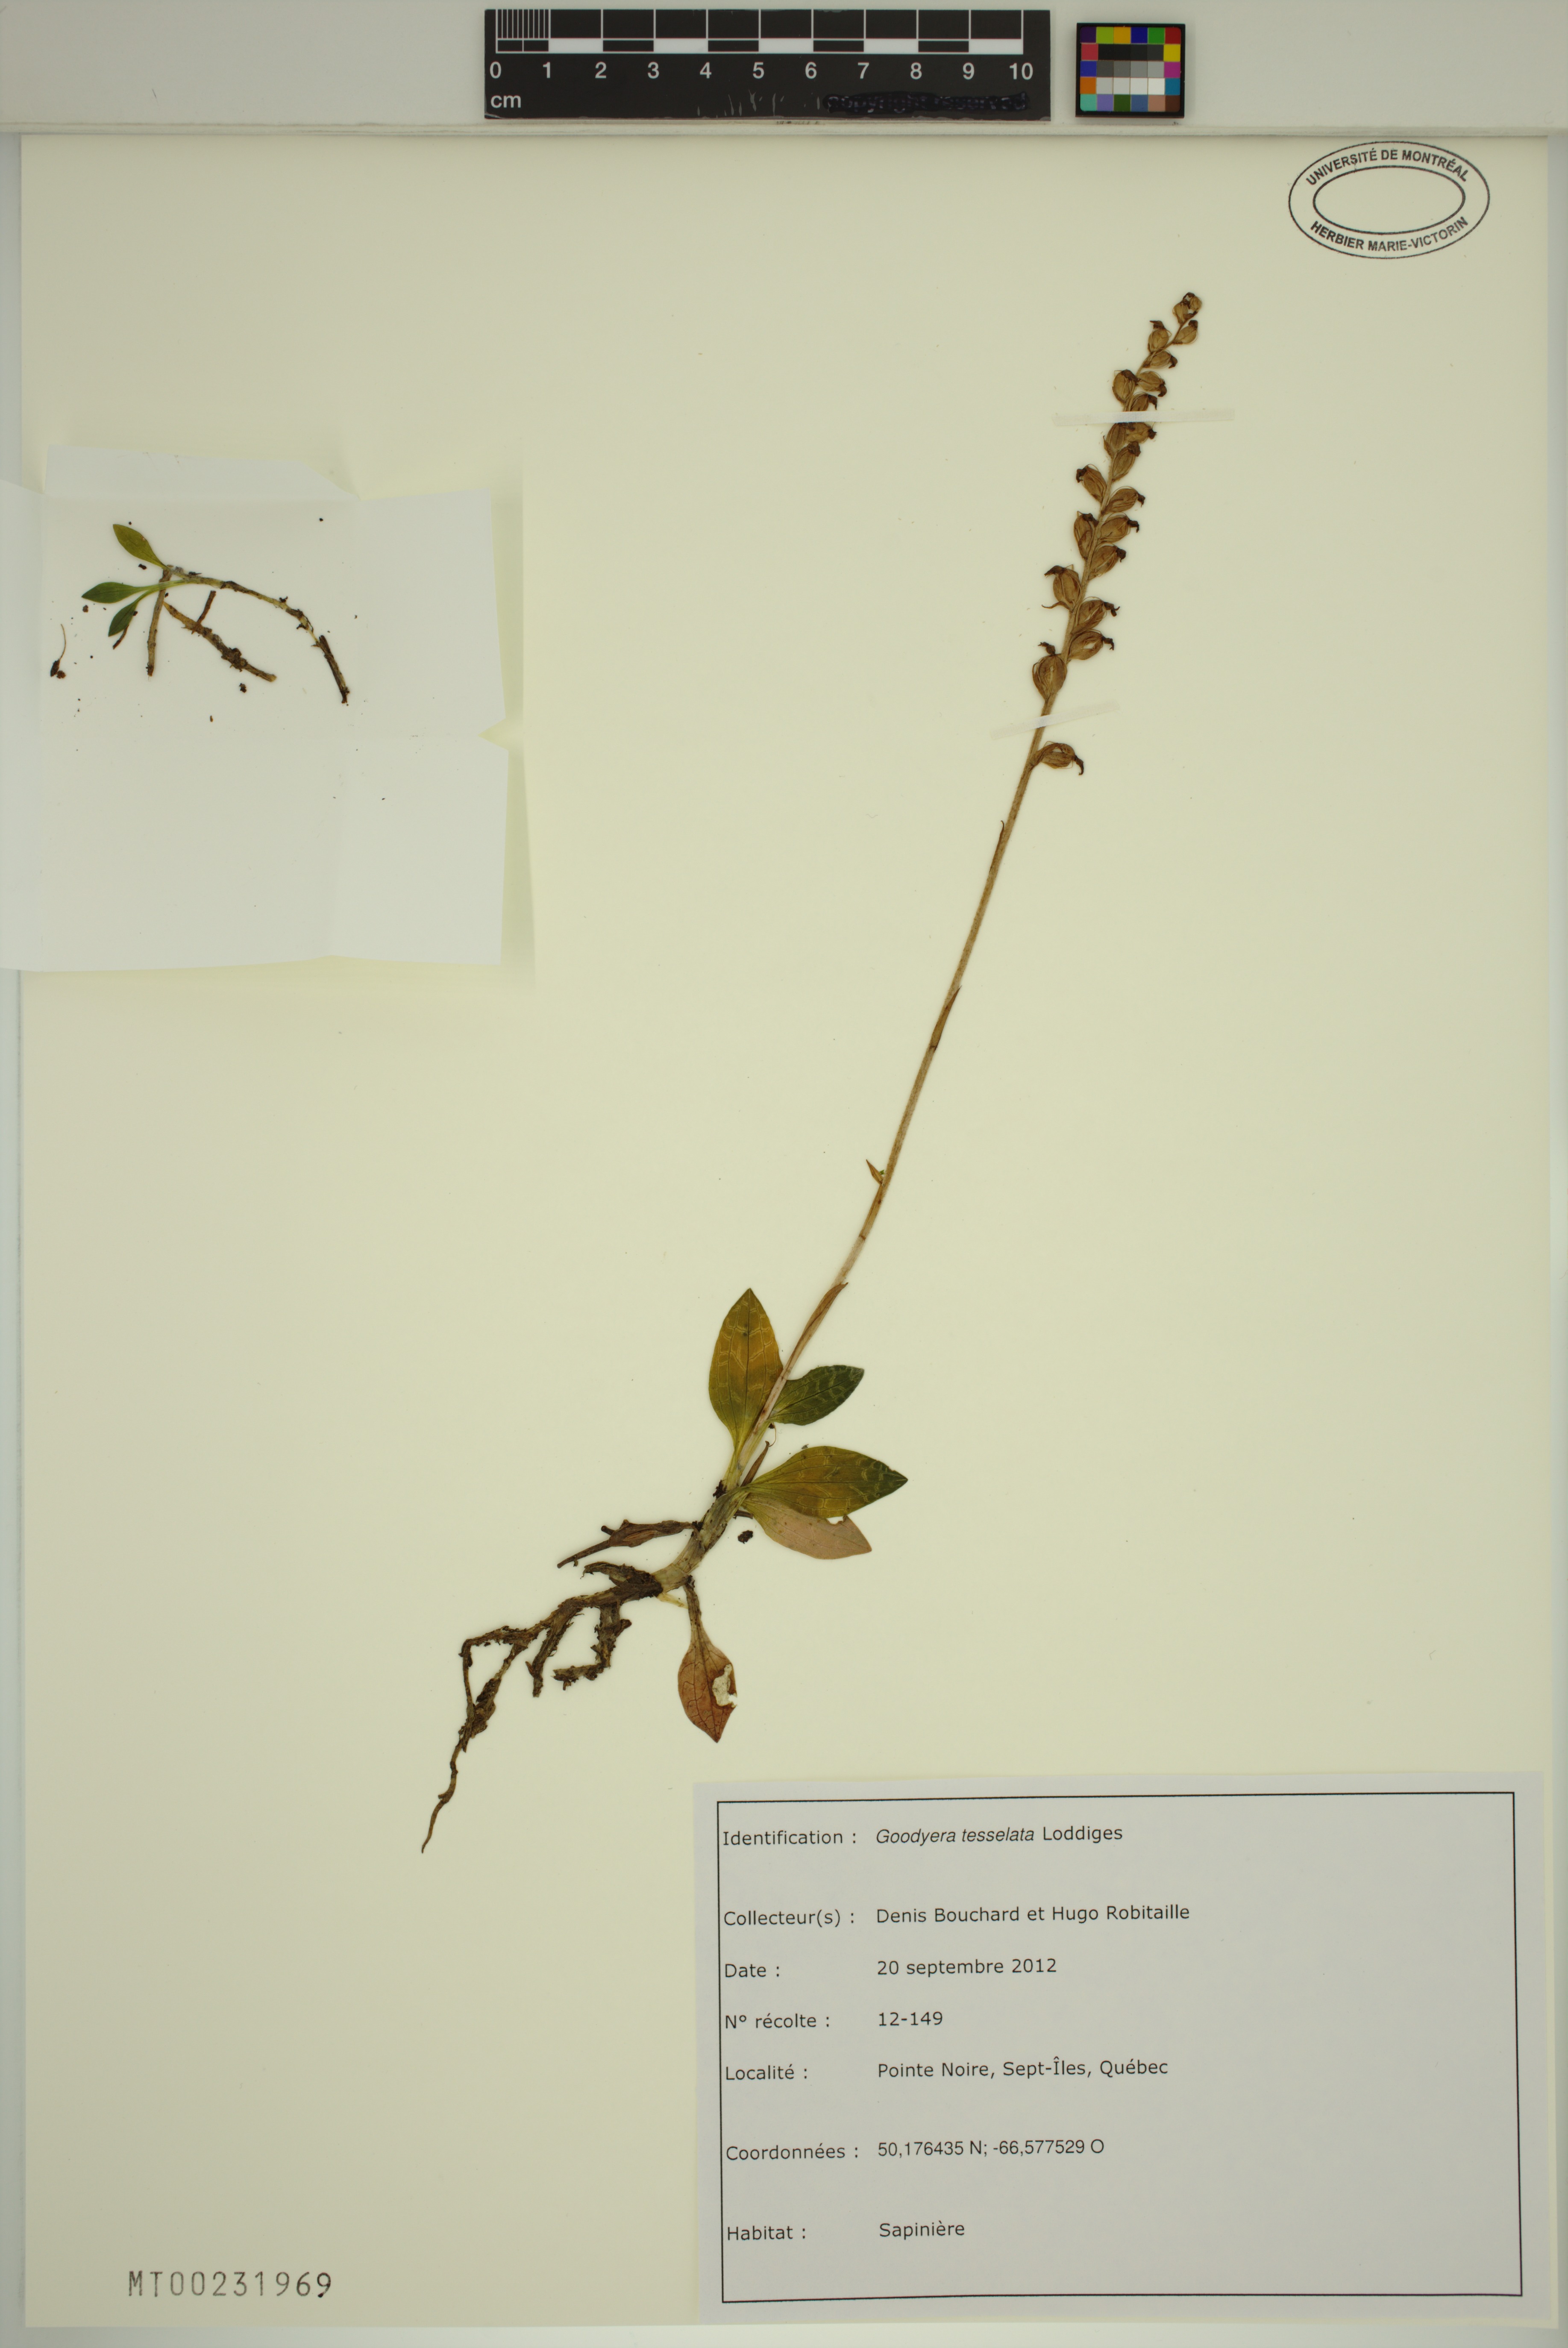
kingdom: Plantae
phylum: Tracheophyta
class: Liliopsida
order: Asparagales
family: Orchidaceae
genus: Goodyera
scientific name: Goodyera tesselata
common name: Checkered rattlesnake-plantain
